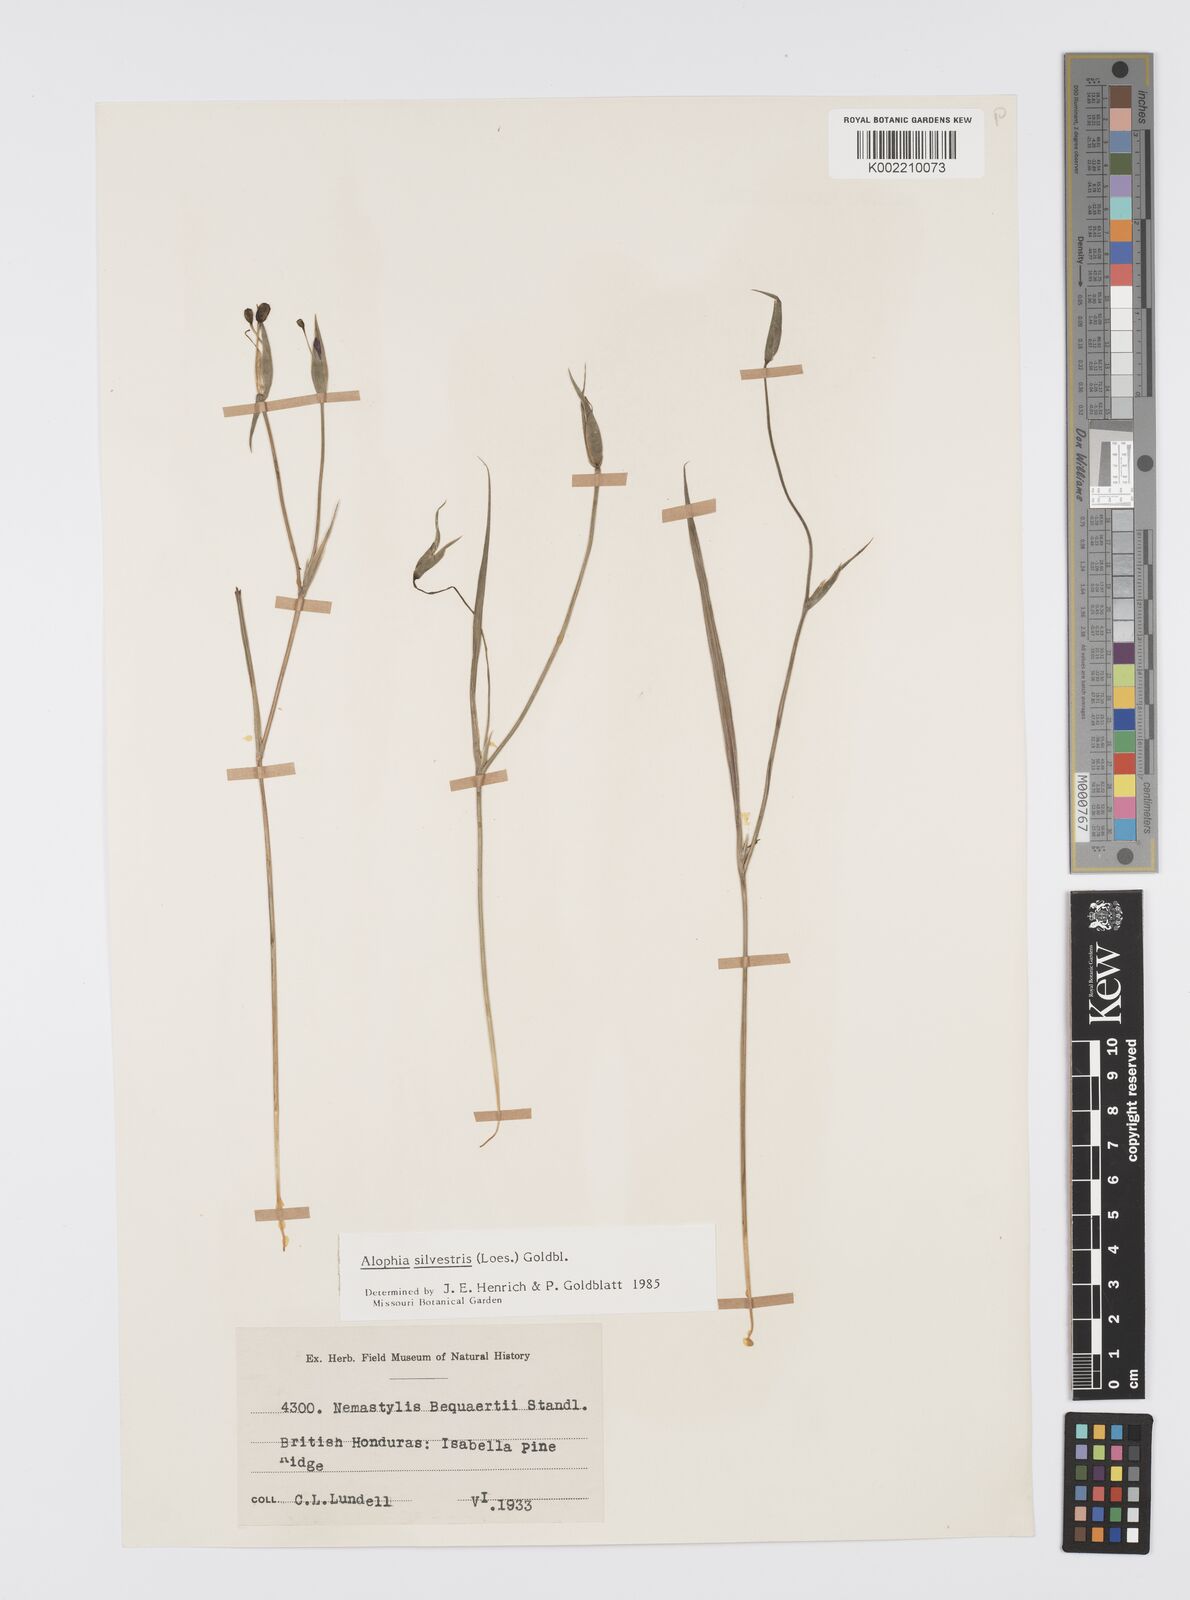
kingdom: Plantae
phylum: Tracheophyta
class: Liliopsida
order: Asparagales
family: Iridaceae
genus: Alophia
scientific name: Alophia silvestris
